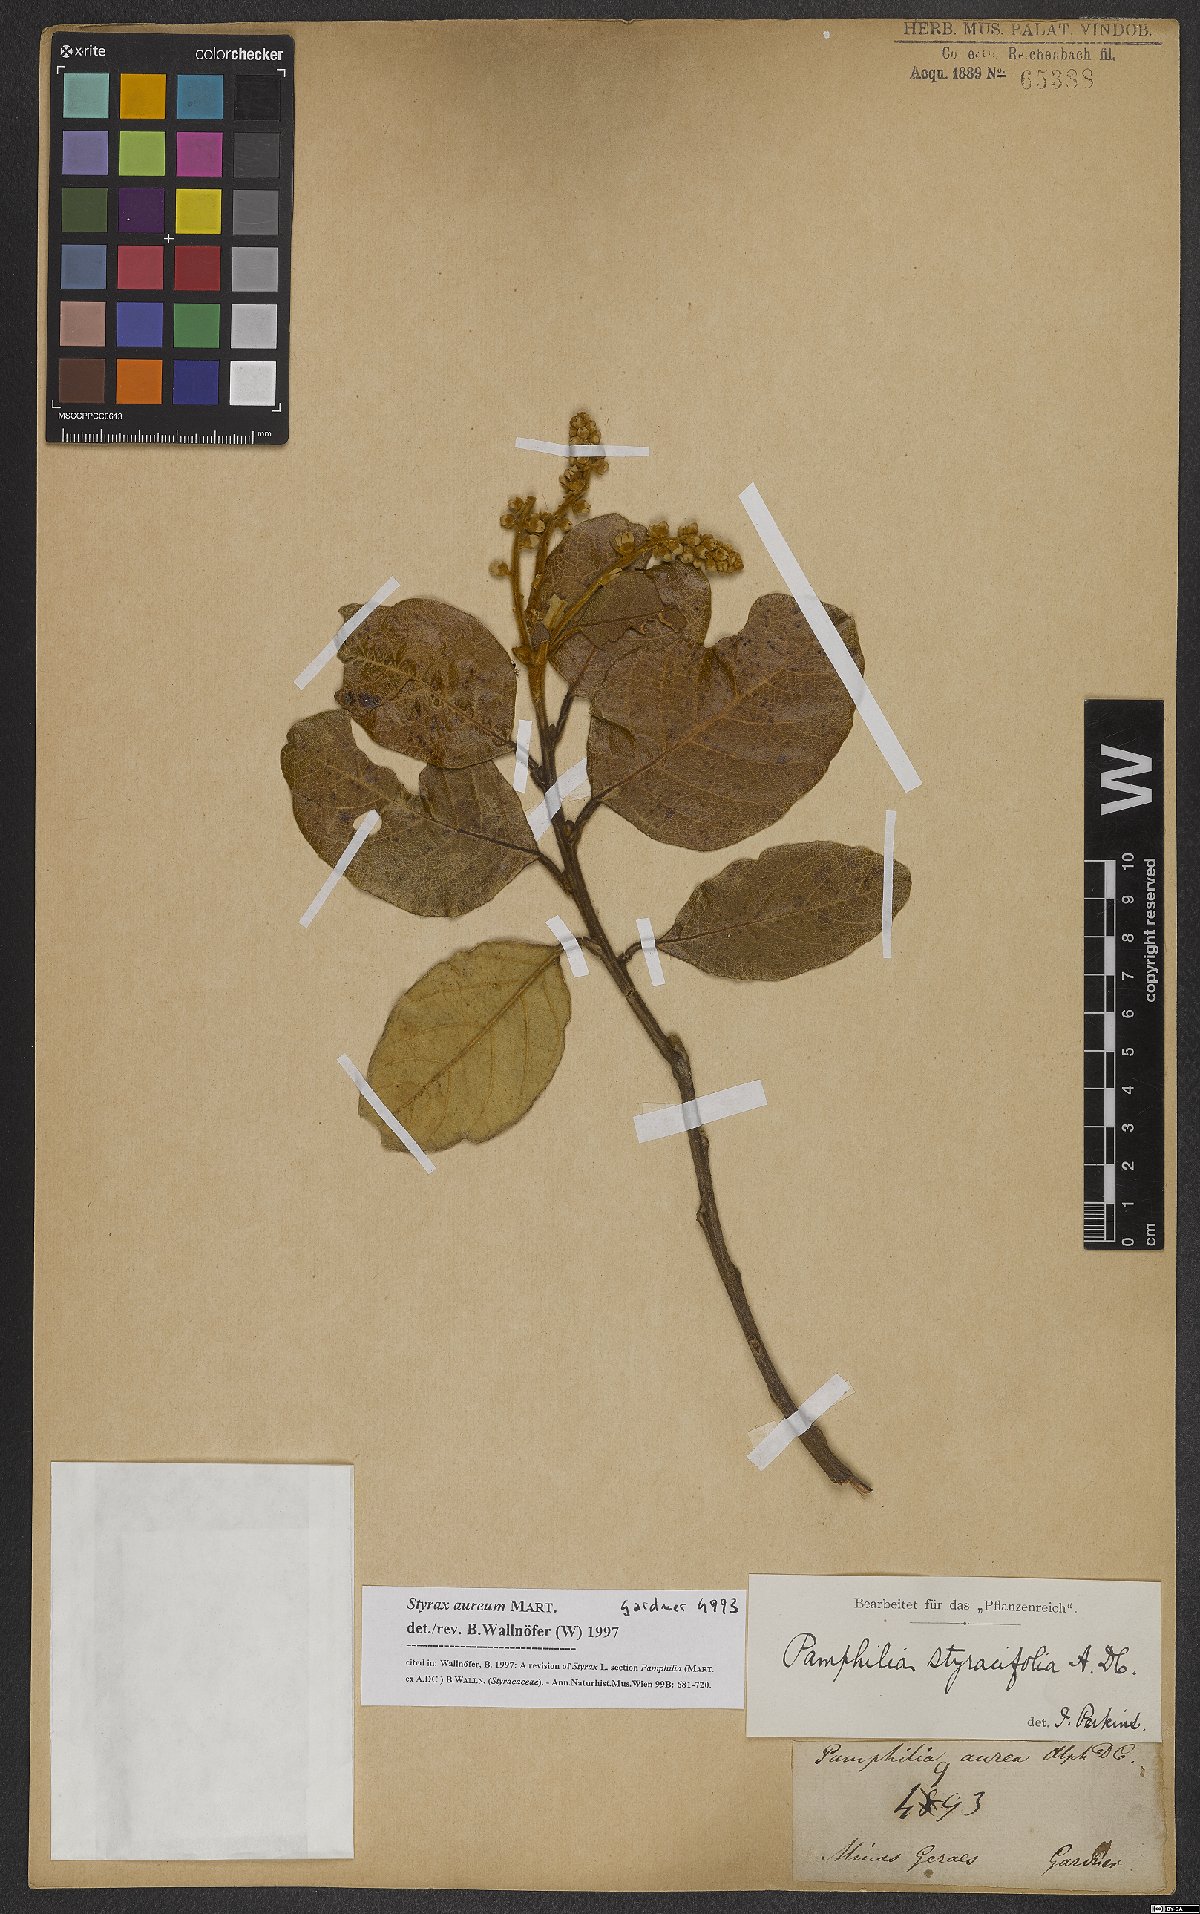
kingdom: Plantae
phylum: Tracheophyta
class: Magnoliopsida
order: Ericales
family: Styracaceae
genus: Styrax
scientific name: Styrax aureus
